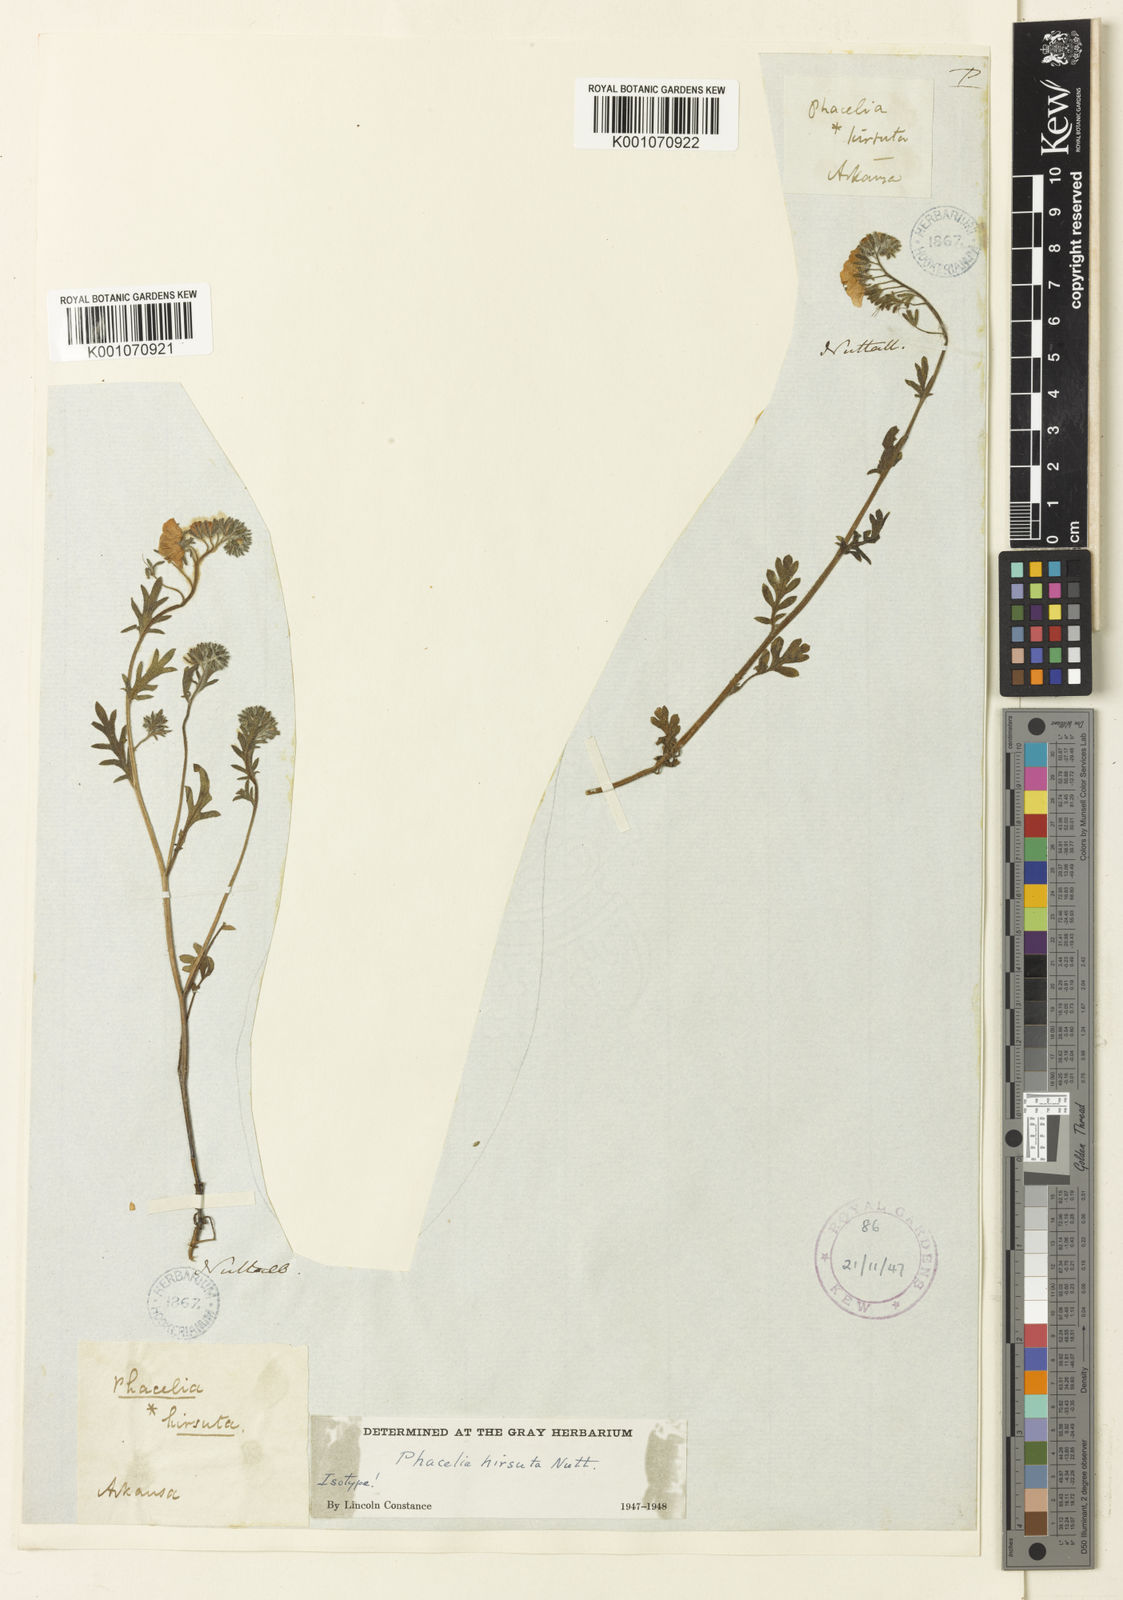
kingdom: Plantae
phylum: Tracheophyta
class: Magnoliopsida
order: Boraginales
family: Hydrophyllaceae
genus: Phacelia
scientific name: Phacelia hirsuta
